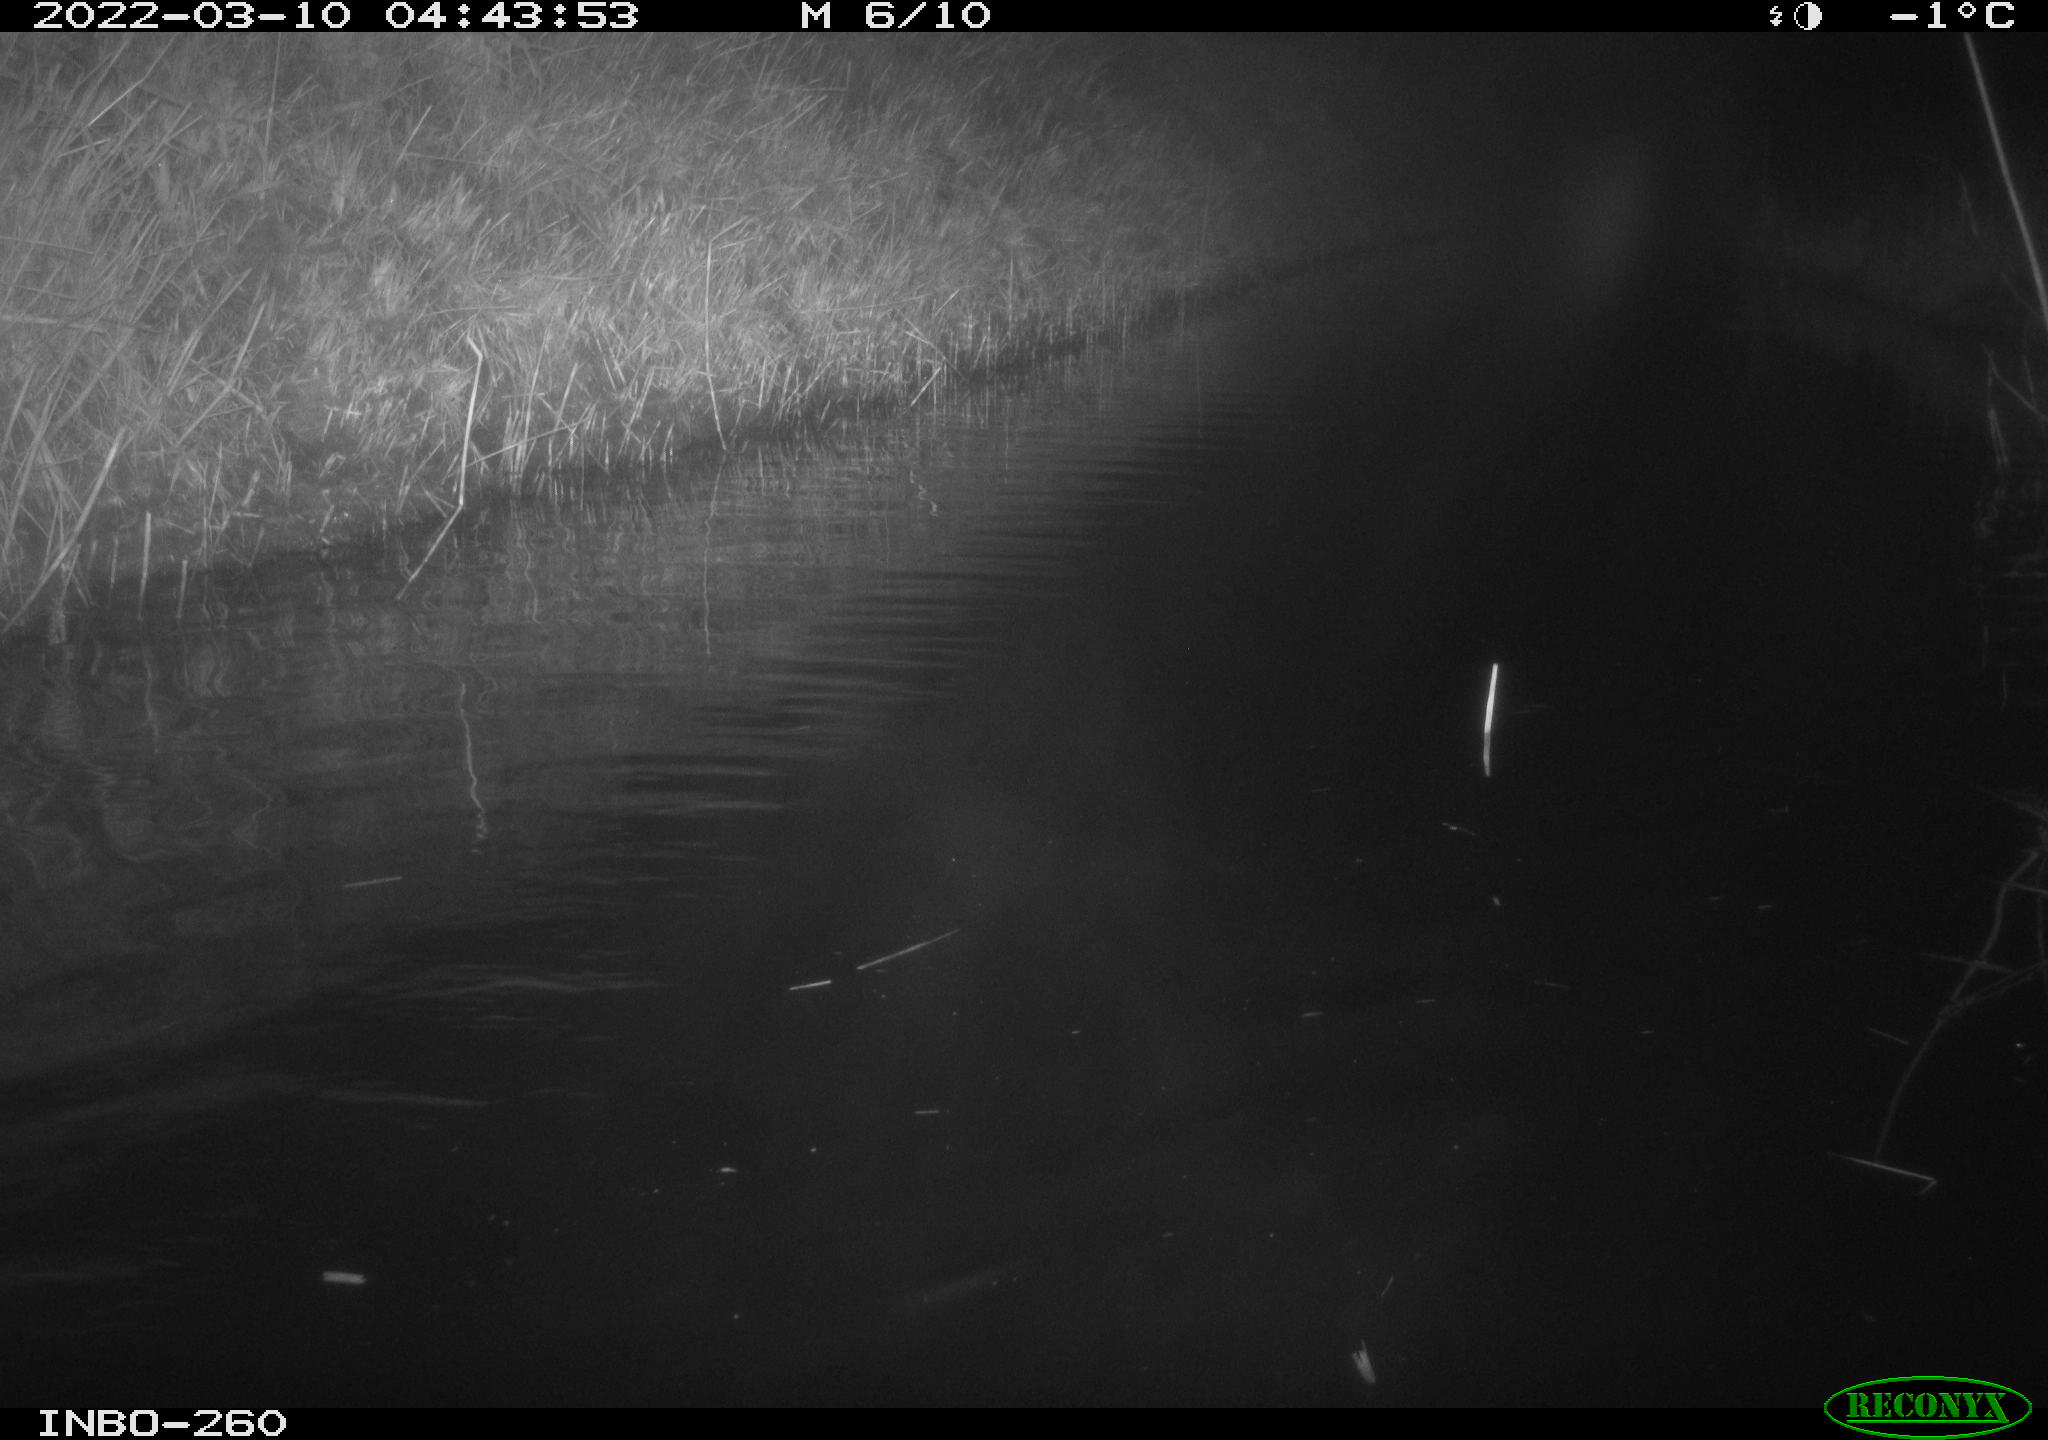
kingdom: Animalia
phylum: Chordata
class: Mammalia
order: Rodentia
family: Cricetidae
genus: Ondatra
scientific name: Ondatra zibethicus
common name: Muskrat
